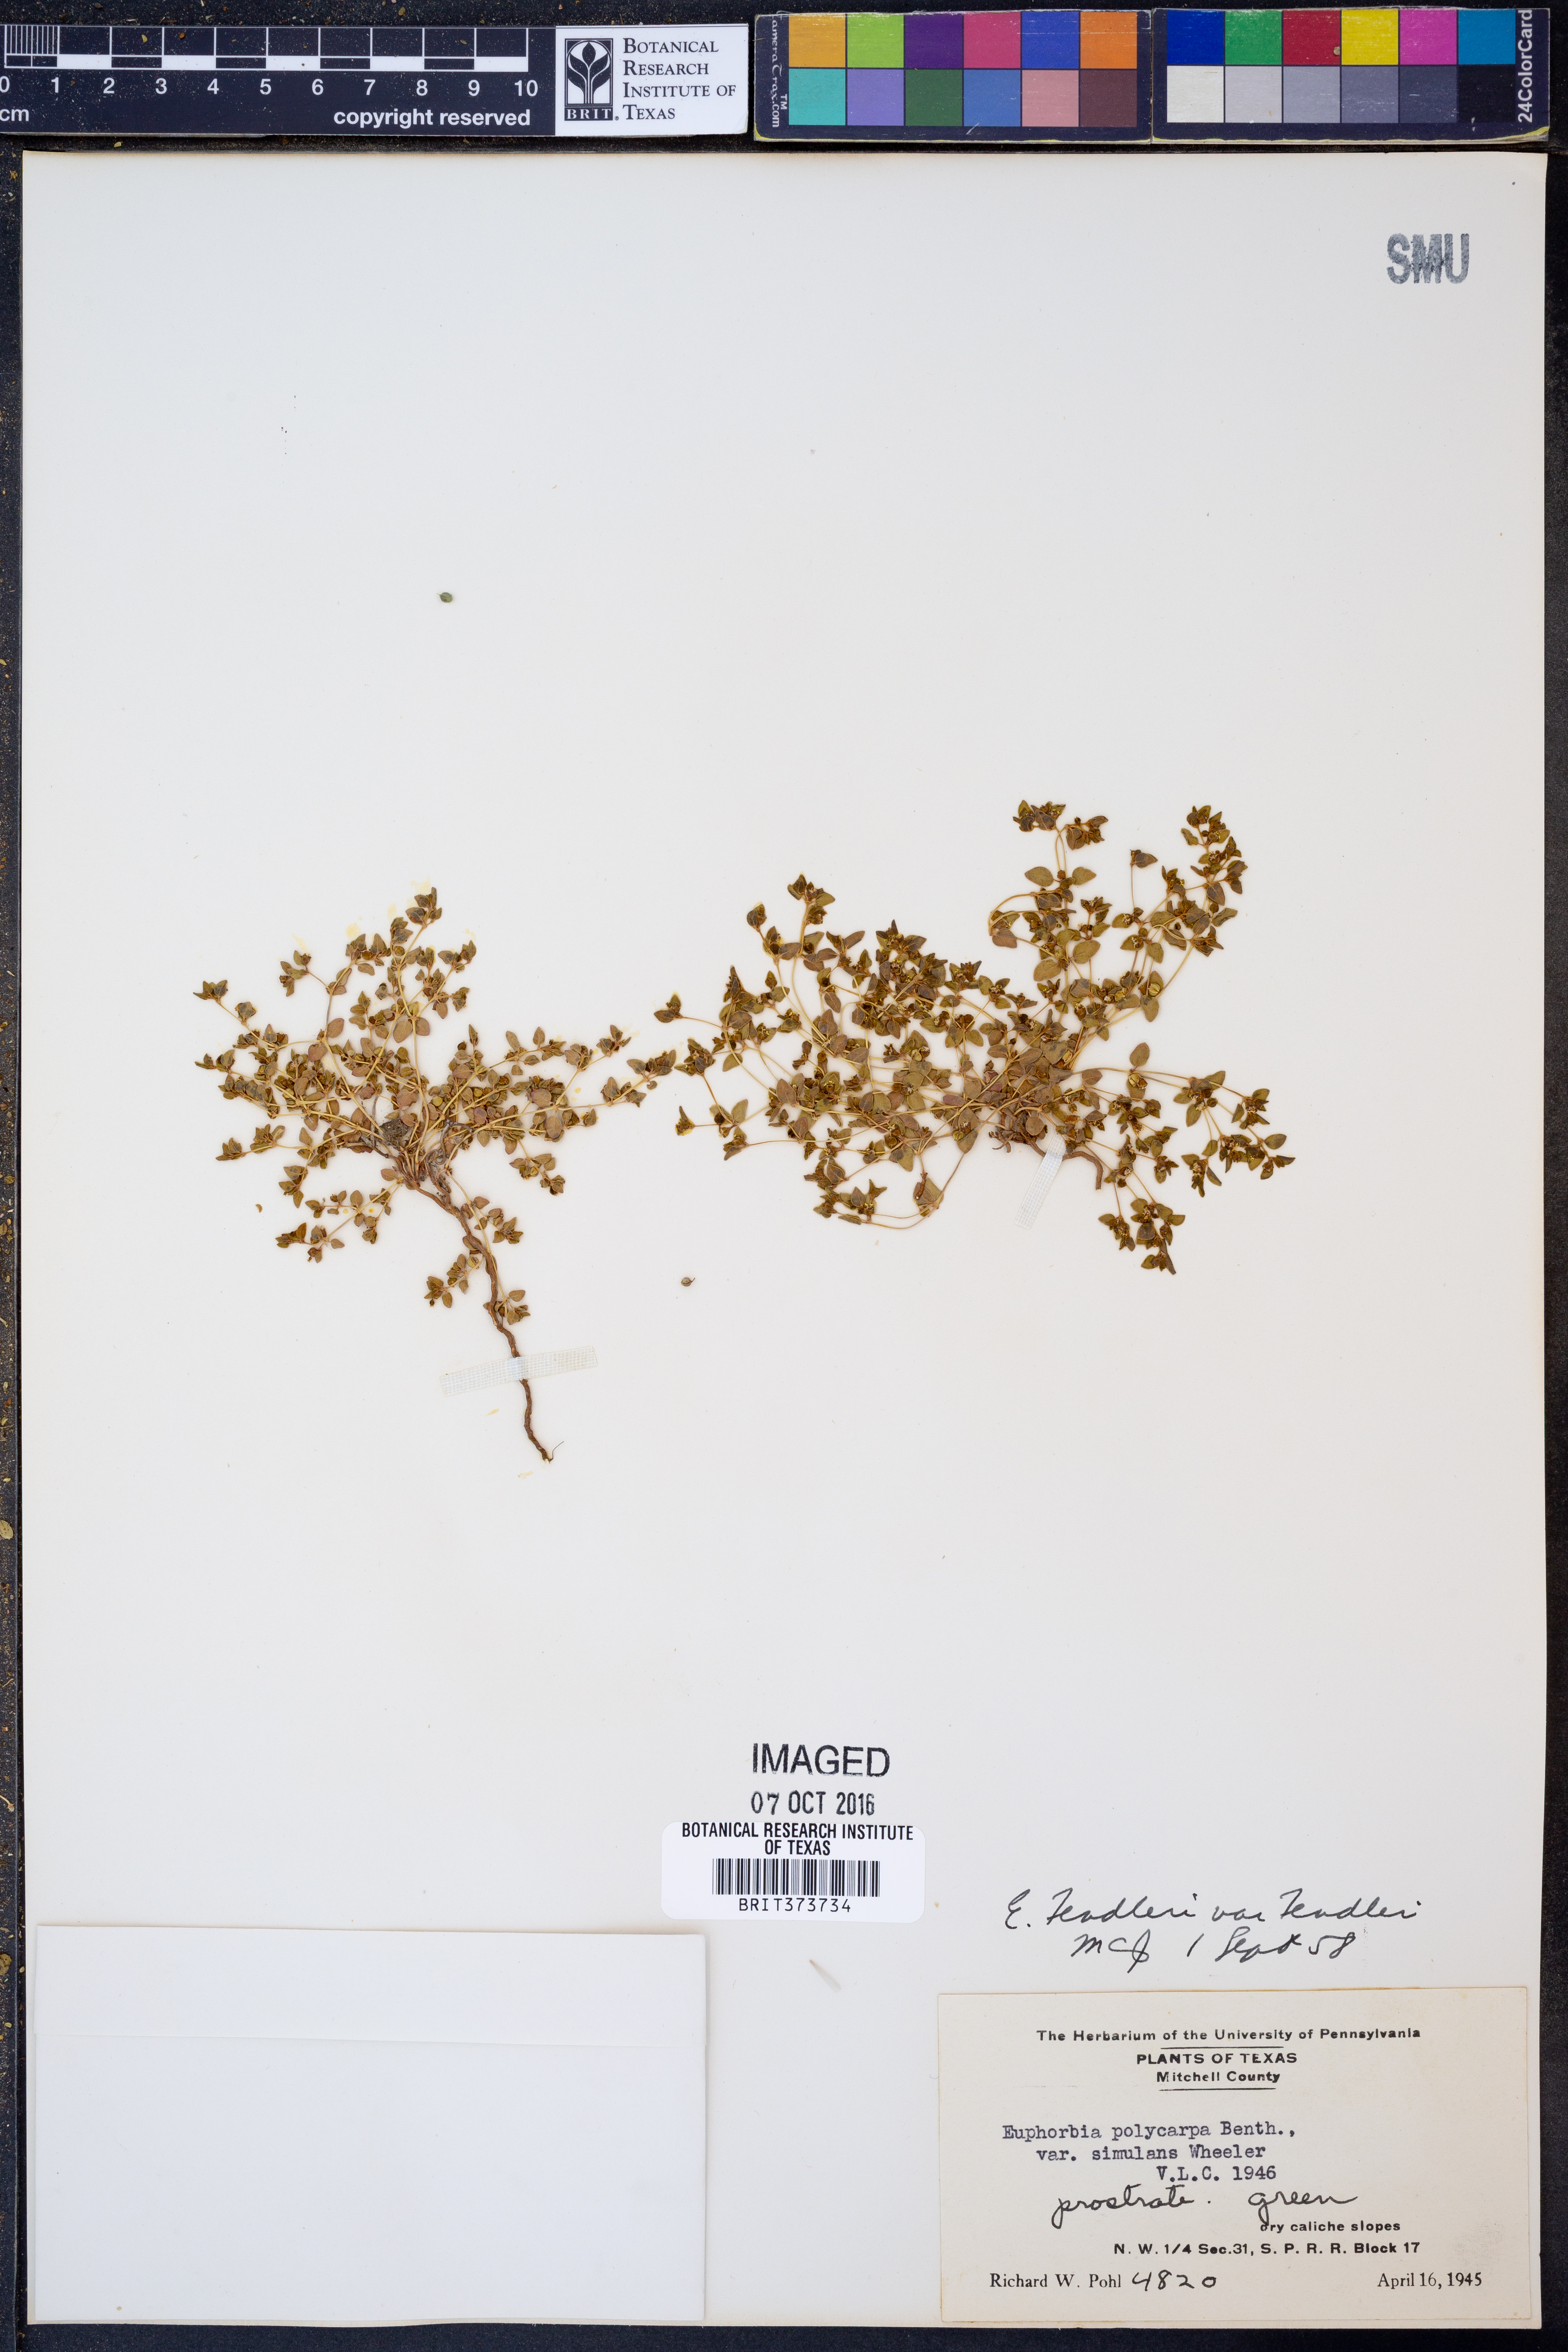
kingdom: Plantae
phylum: Tracheophyta
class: Magnoliopsida
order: Malpighiales
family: Euphorbiaceae
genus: Euphorbia
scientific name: Euphorbia polycarpa
